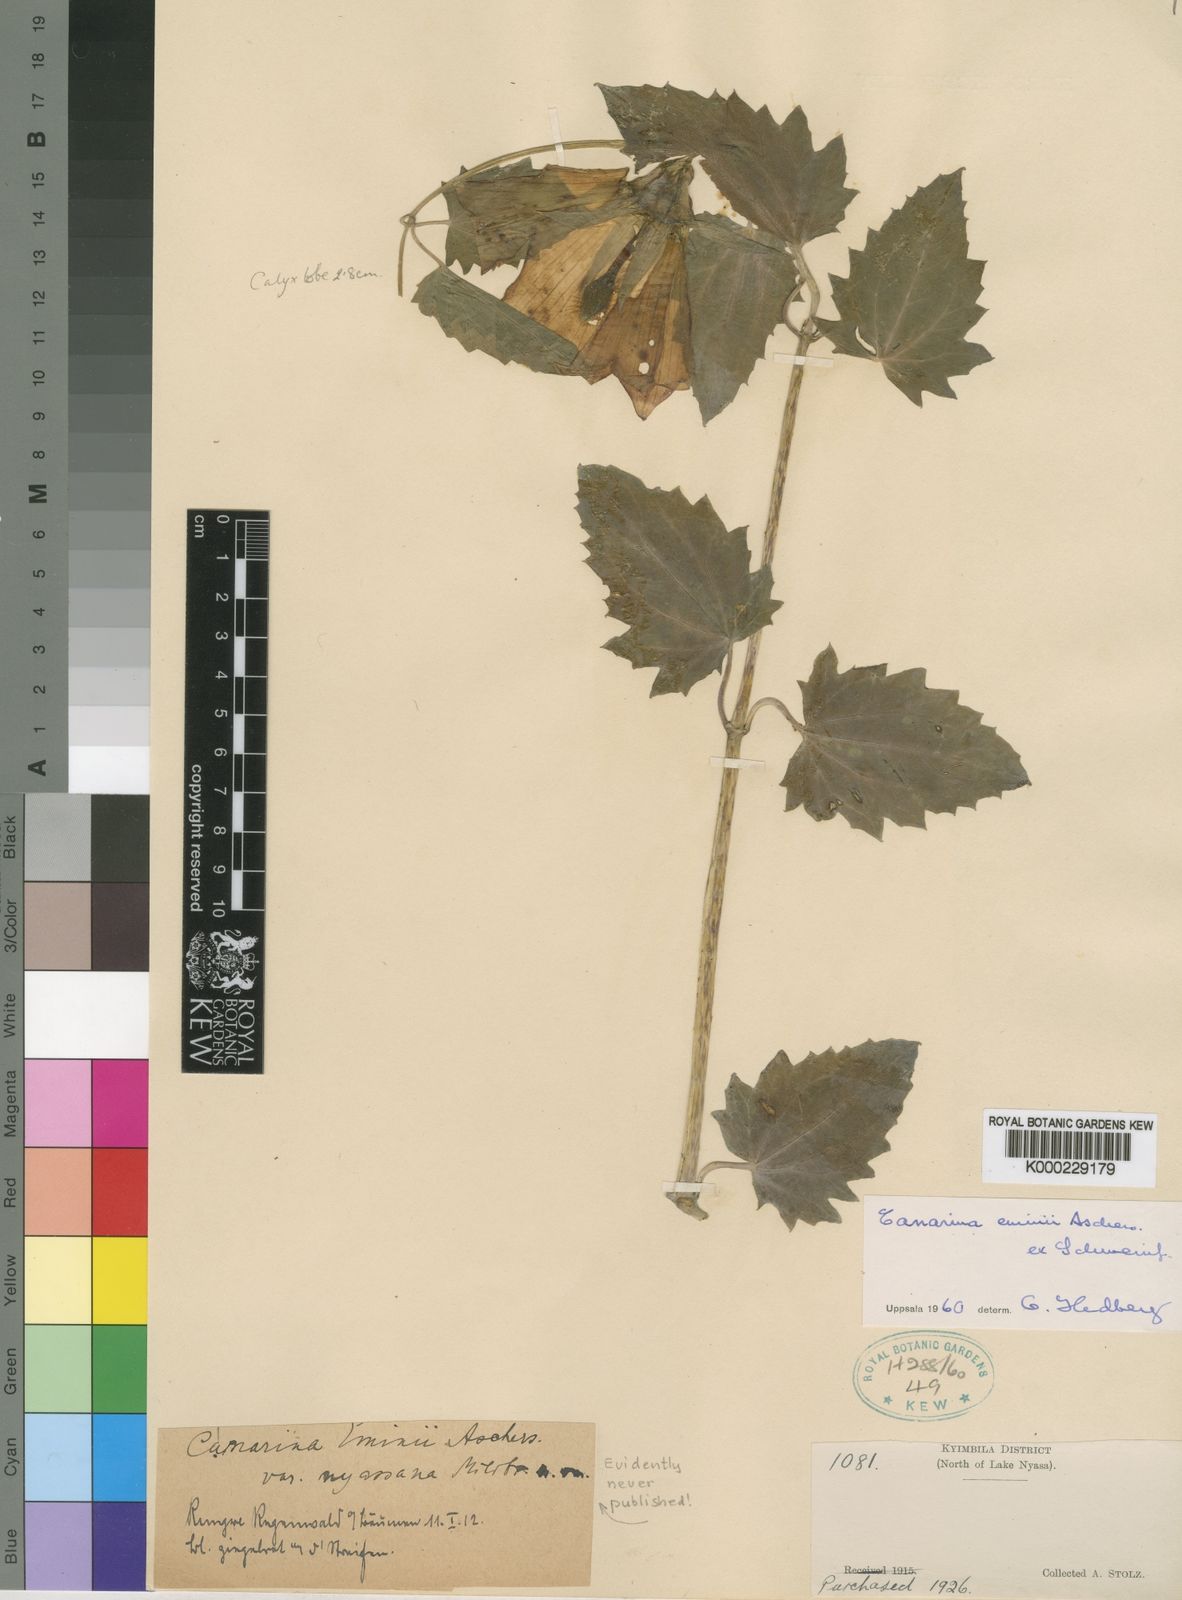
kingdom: Plantae
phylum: Tracheophyta
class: Magnoliopsida
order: Asterales
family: Campanulaceae
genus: Canarina
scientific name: Canarina eminii
